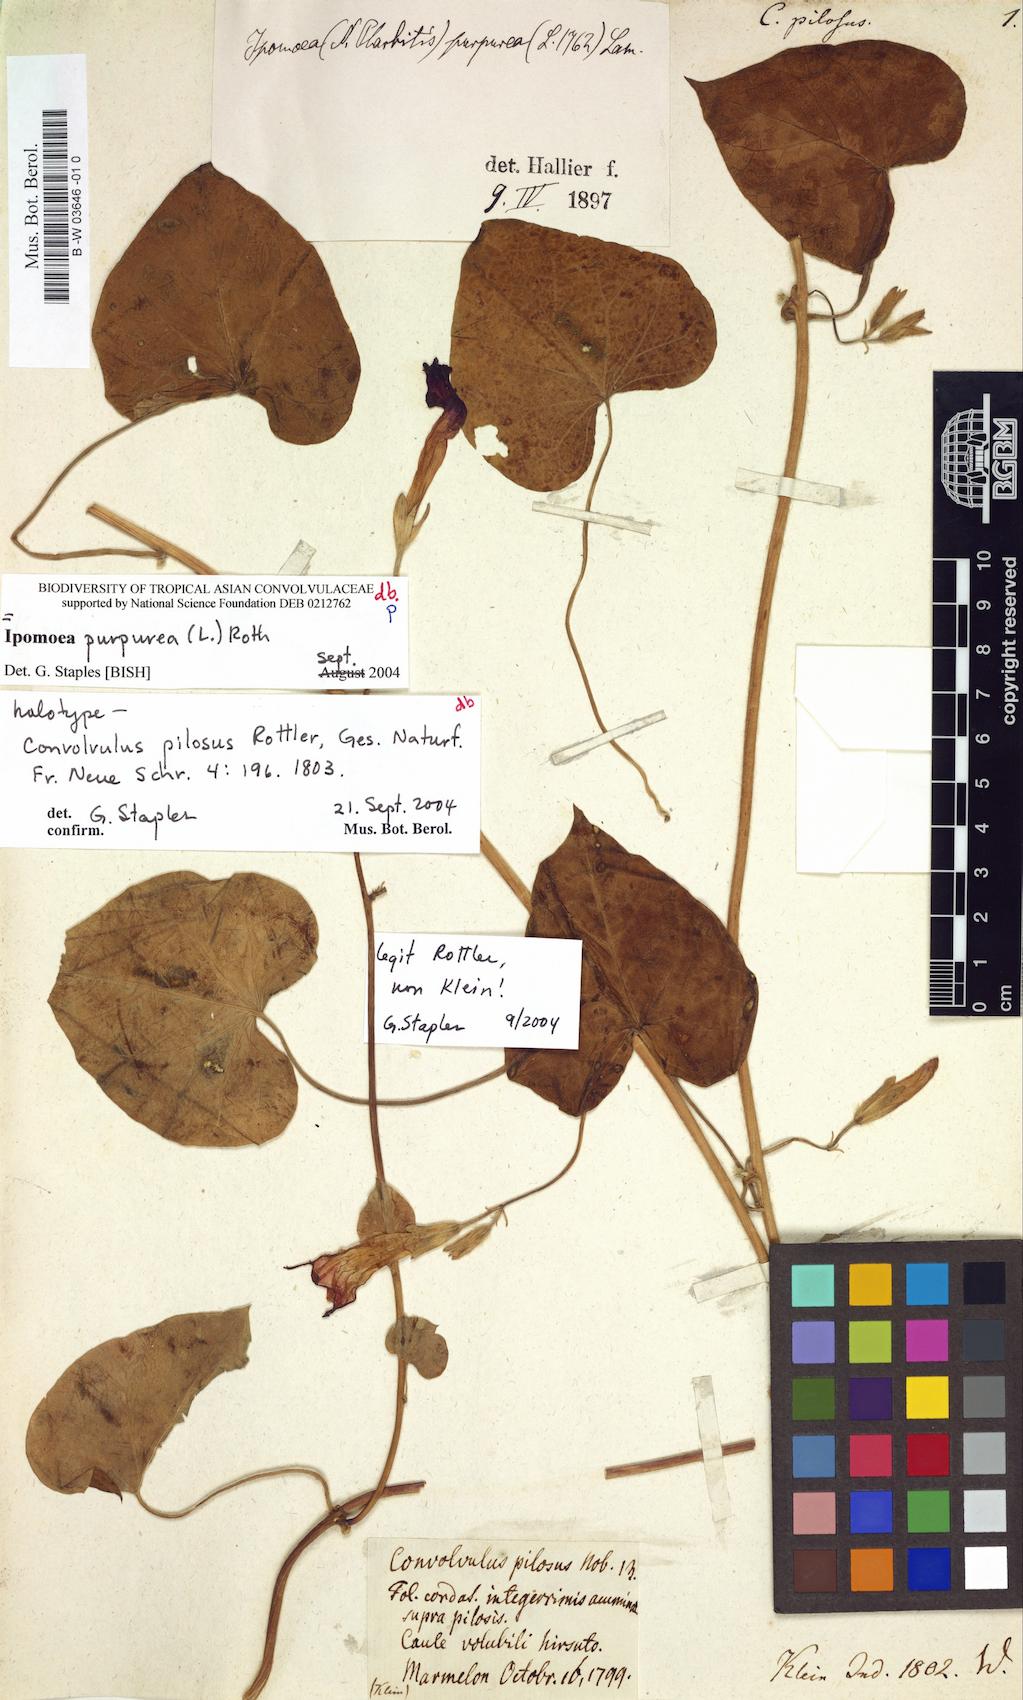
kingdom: Plantae
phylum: Tracheophyta
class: Magnoliopsida
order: Solanales
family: Convolvulaceae
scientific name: Convolvulaceae
